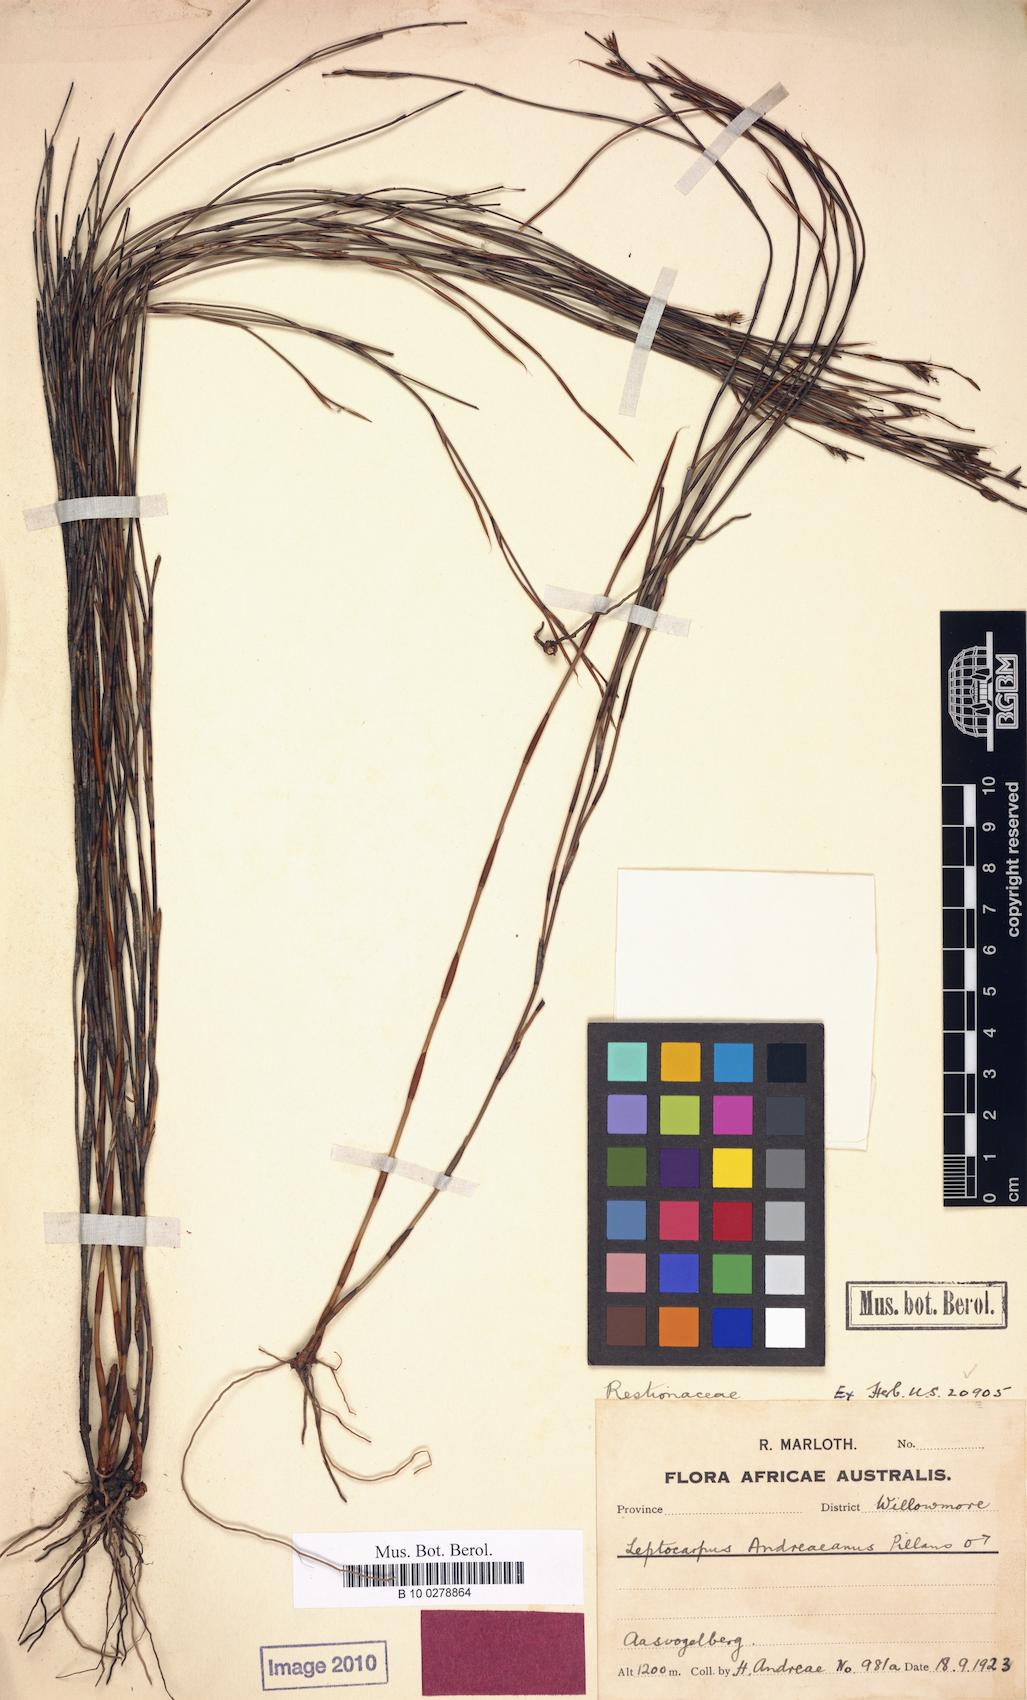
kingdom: Plantae
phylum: Tracheophyta
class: Liliopsida
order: Poales
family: Restionaceae
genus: Restio
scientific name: Restio andreaeanus
